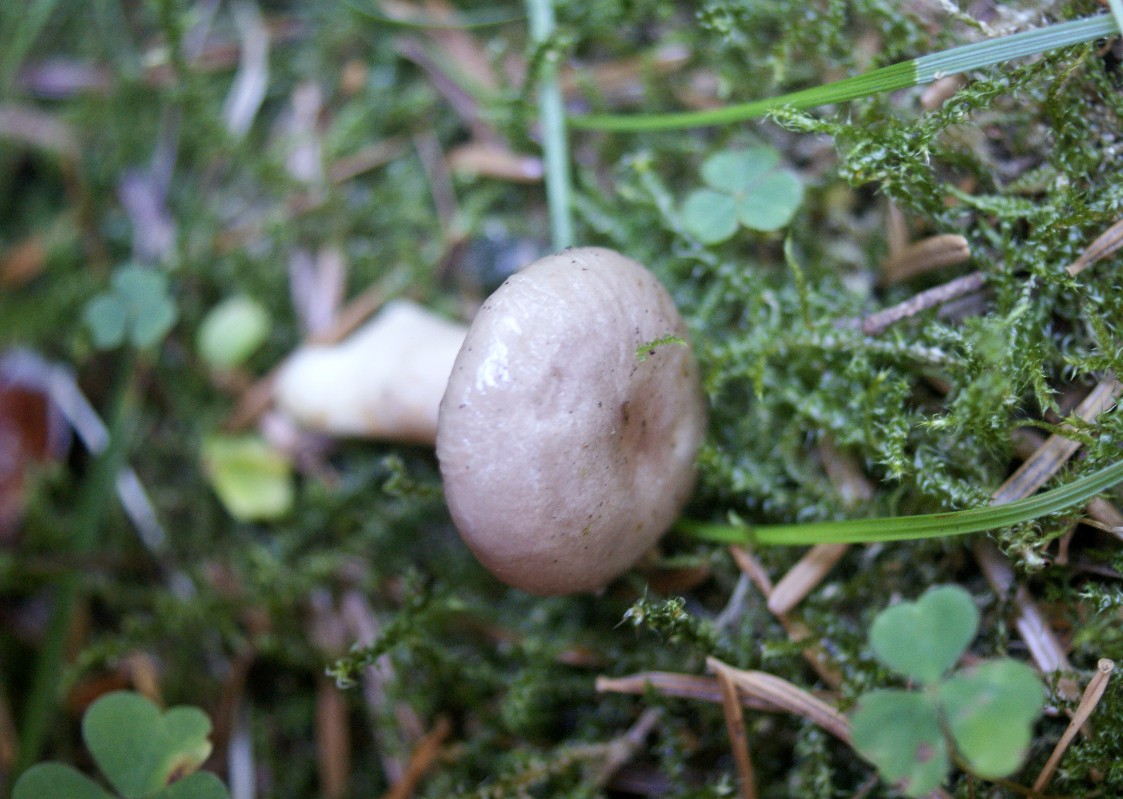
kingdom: Fungi
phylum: Basidiomycota
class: Agaricomycetes
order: Russulales
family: Russulaceae
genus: Lactarius
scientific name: Lactarius albocarneus
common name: ædelgran-mælkehat
